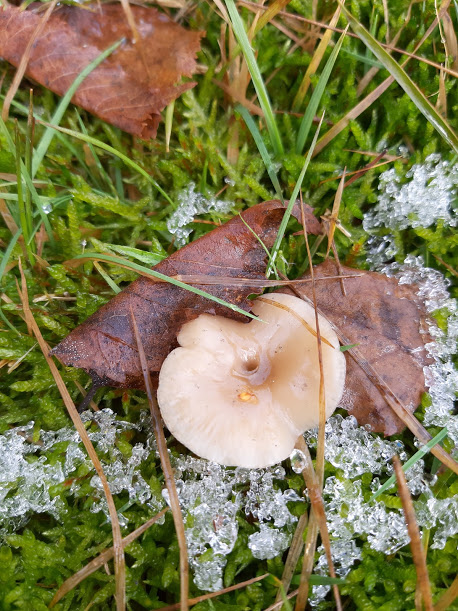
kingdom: Fungi
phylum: Basidiomycota
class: Agaricomycetes
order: Agaricales
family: Tricholomataceae
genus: Clitocybe
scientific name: Clitocybe fragrans
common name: vellugtende tragthat
